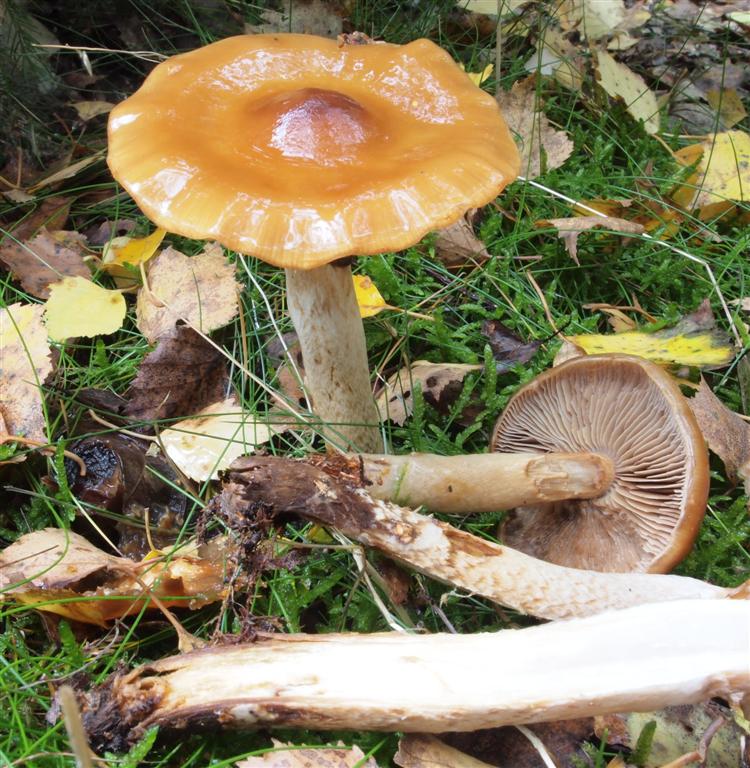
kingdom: Fungi
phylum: Basidiomycota
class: Agaricomycetes
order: Agaricales
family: Cortinariaceae
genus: Cortinarius
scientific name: Cortinarius collinitoides
